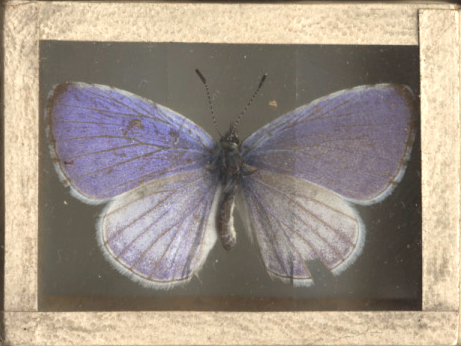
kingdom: Animalia
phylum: Arthropoda
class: Insecta
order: Lepidoptera
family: Lycaenidae
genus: Celastrina
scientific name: Celastrina lucia
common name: Northern Azure
